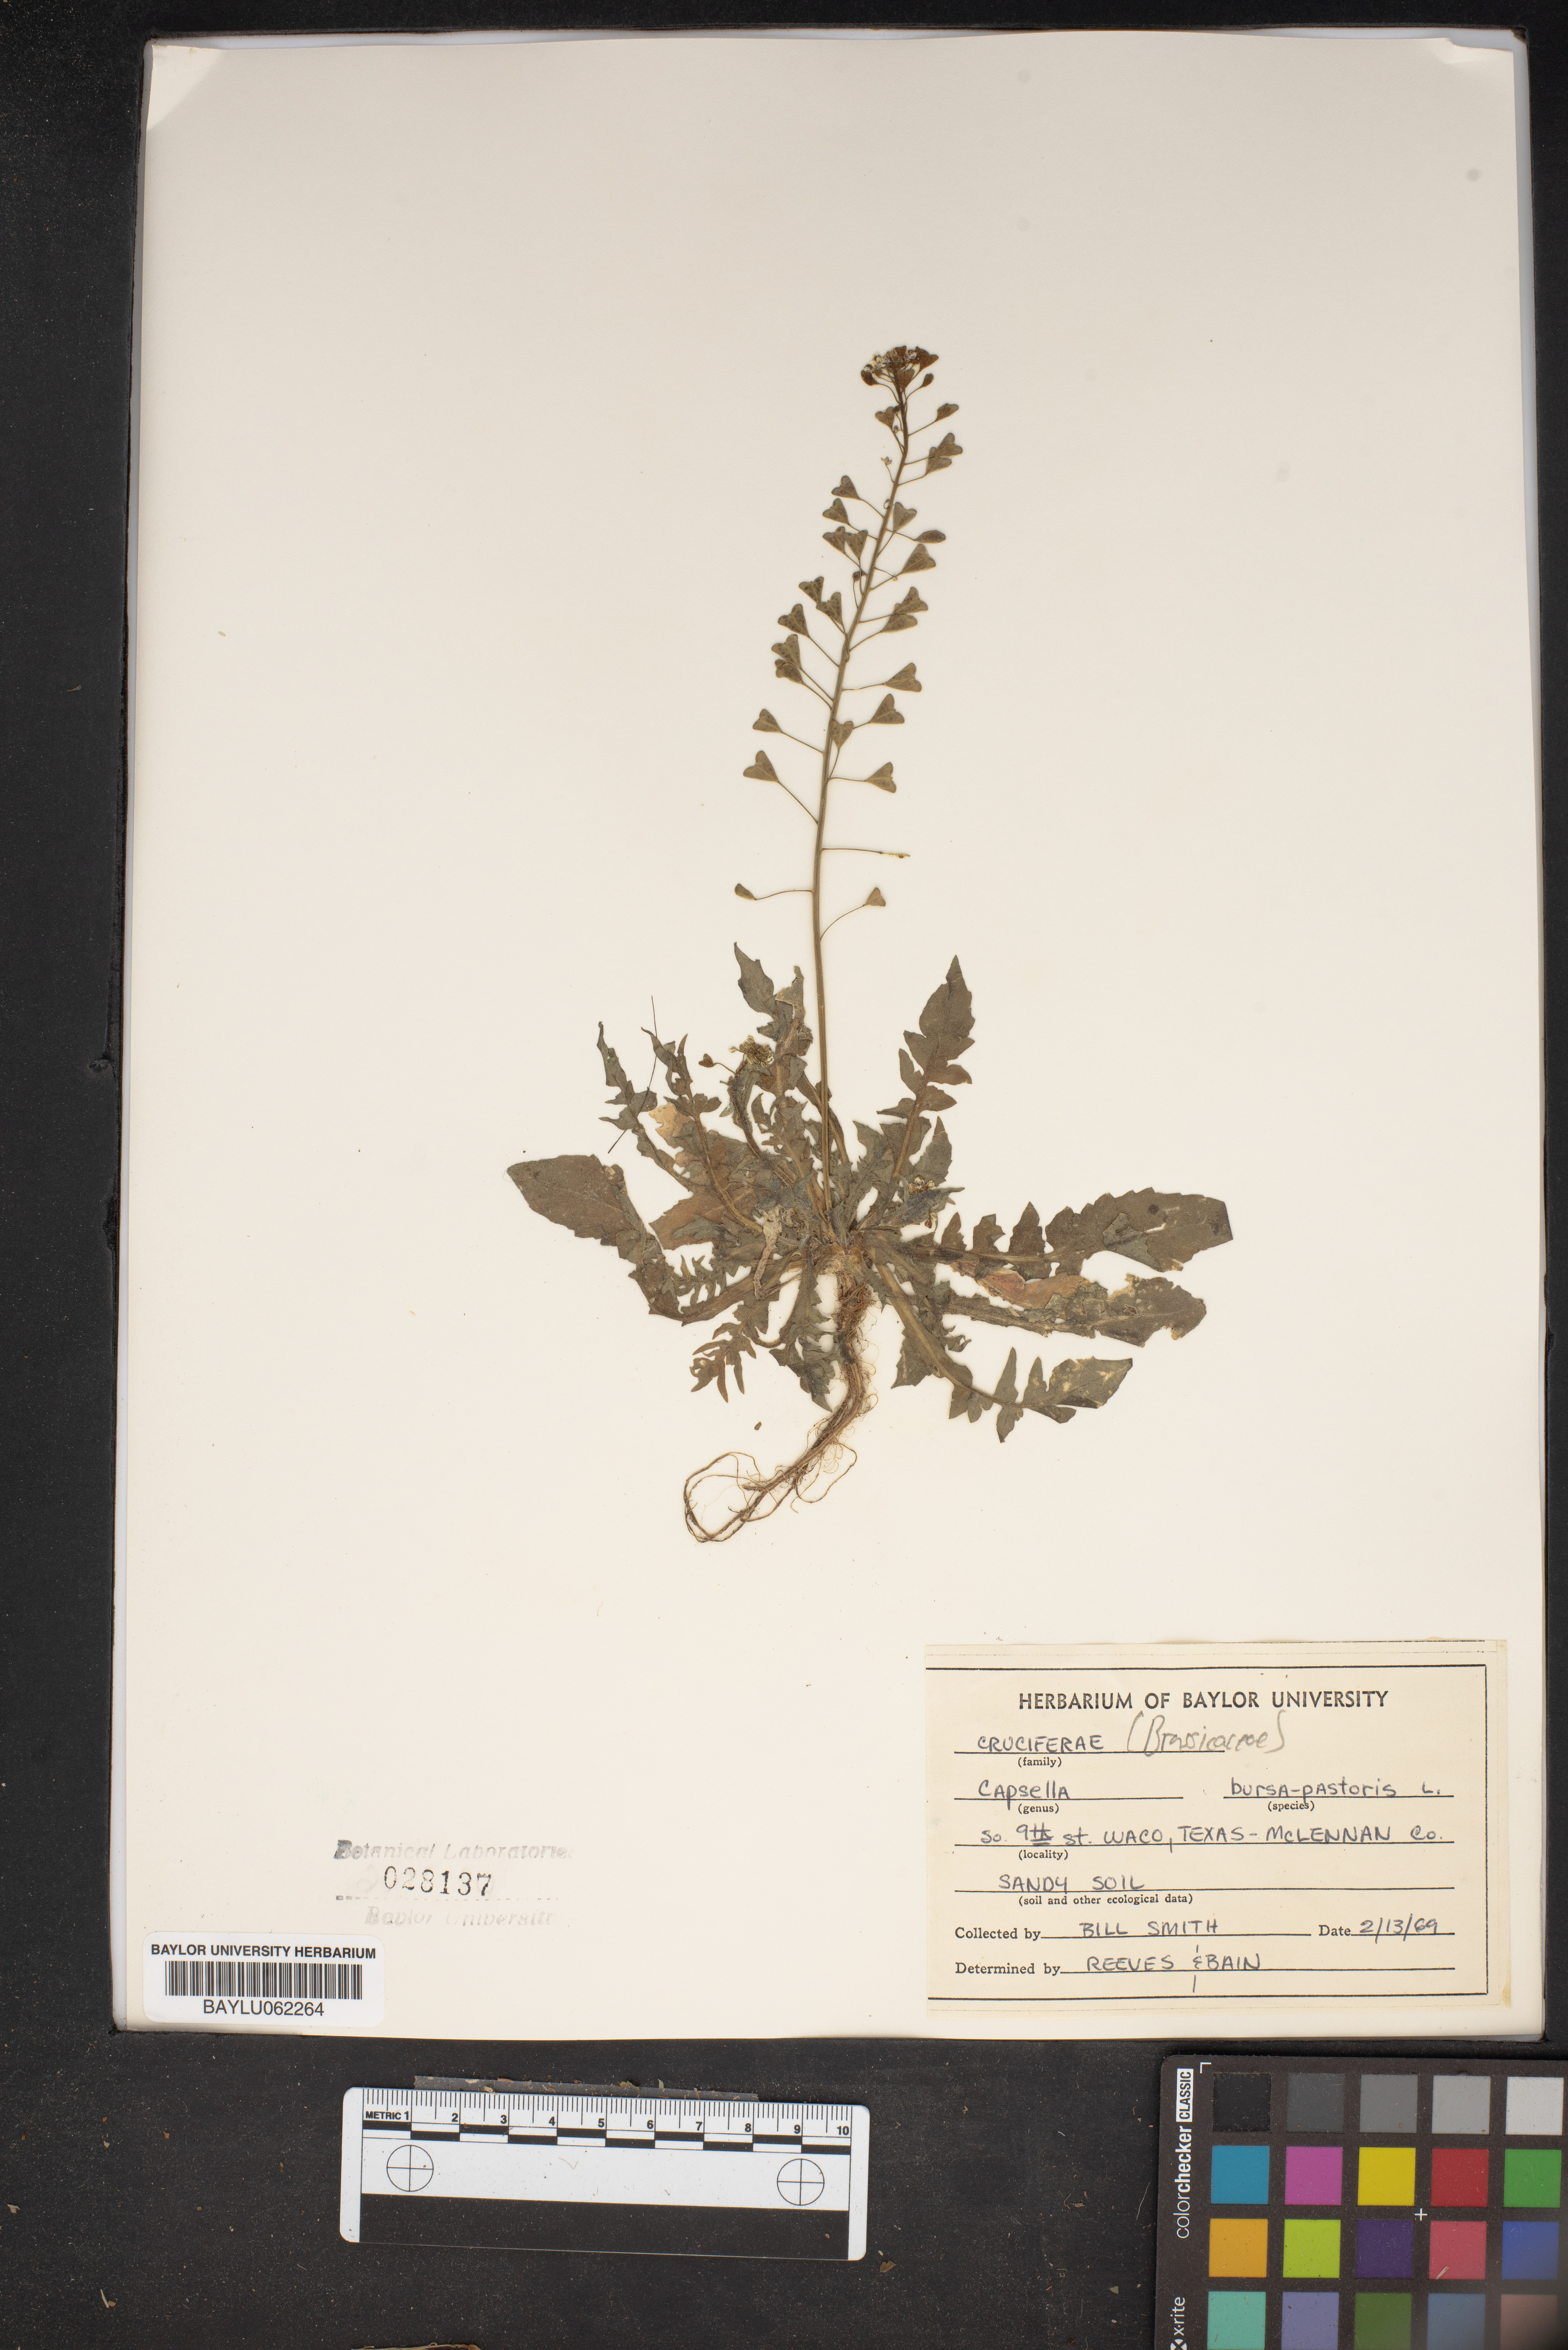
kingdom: Plantae
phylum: Tracheophyta
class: Magnoliopsida
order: Brassicales
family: Brassicaceae
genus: Capsella
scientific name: Capsella bursa-pastoris
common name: Shepherd's purse
